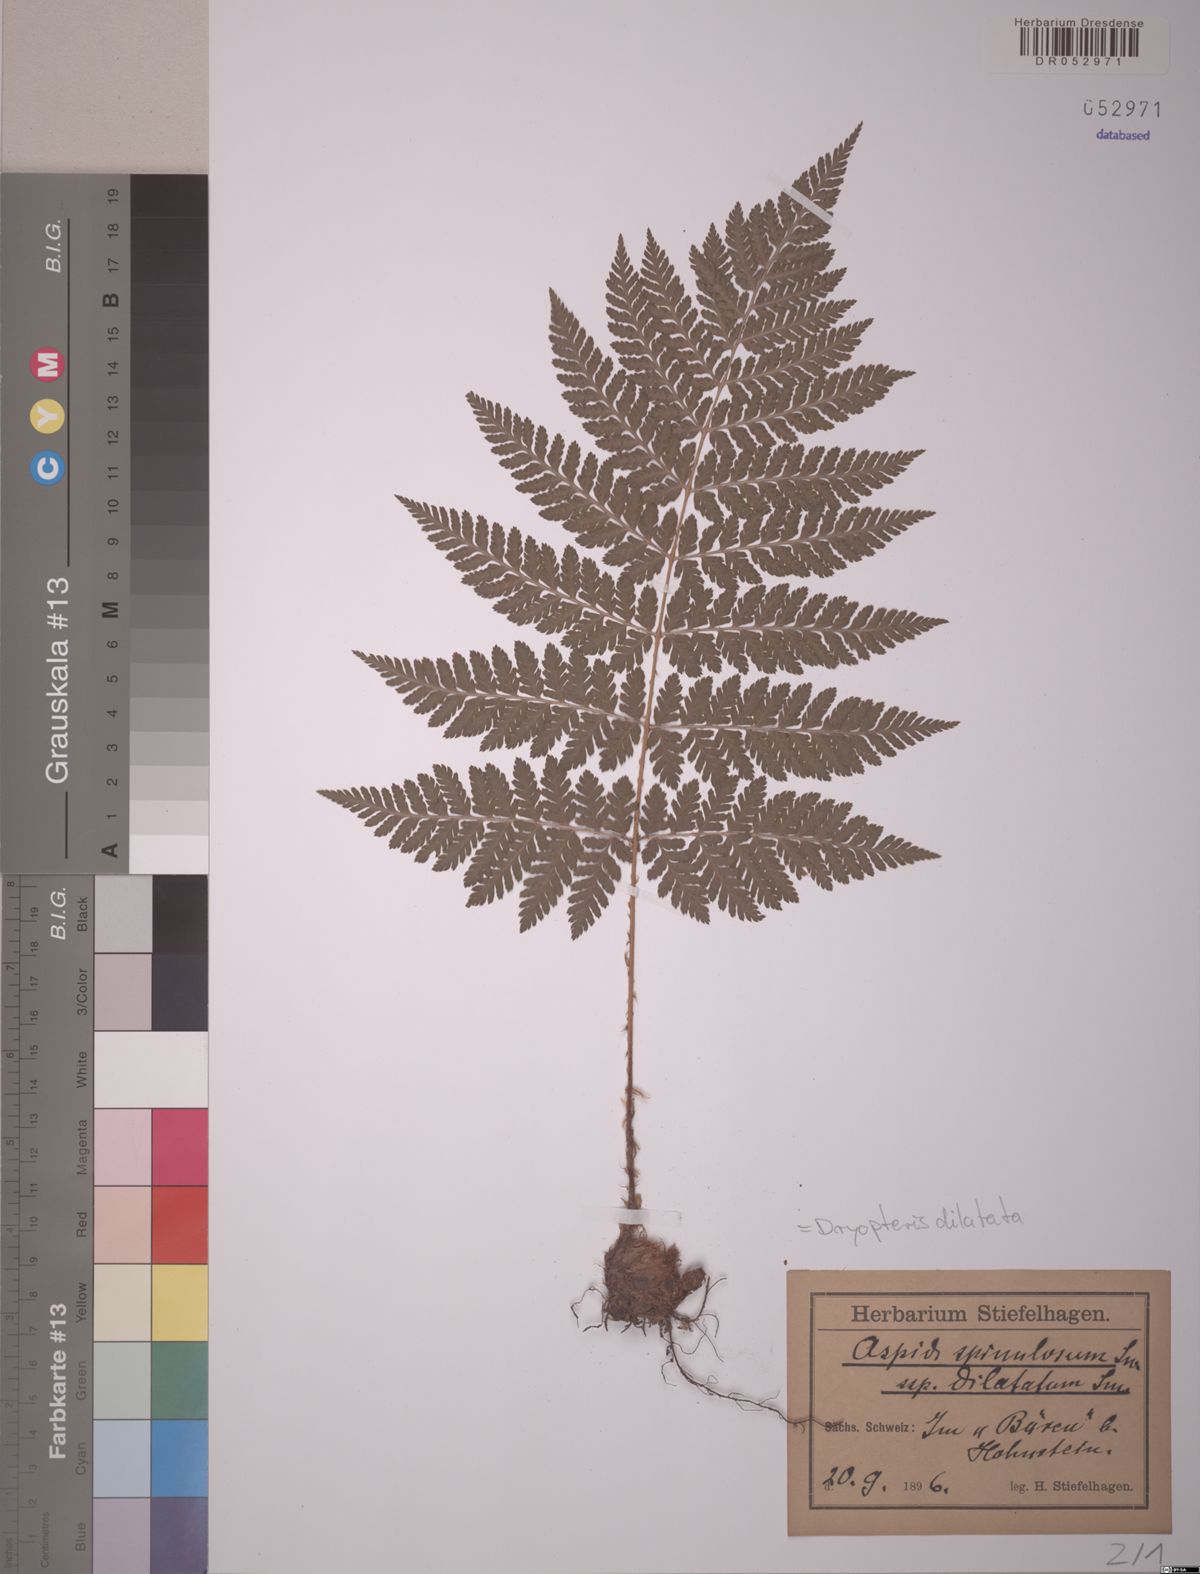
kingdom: Plantae
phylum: Tracheophyta
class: Polypodiopsida
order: Polypodiales
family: Dryopteridaceae
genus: Dryopteris
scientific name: Dryopteris dilatata
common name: Broad buckler-fern
